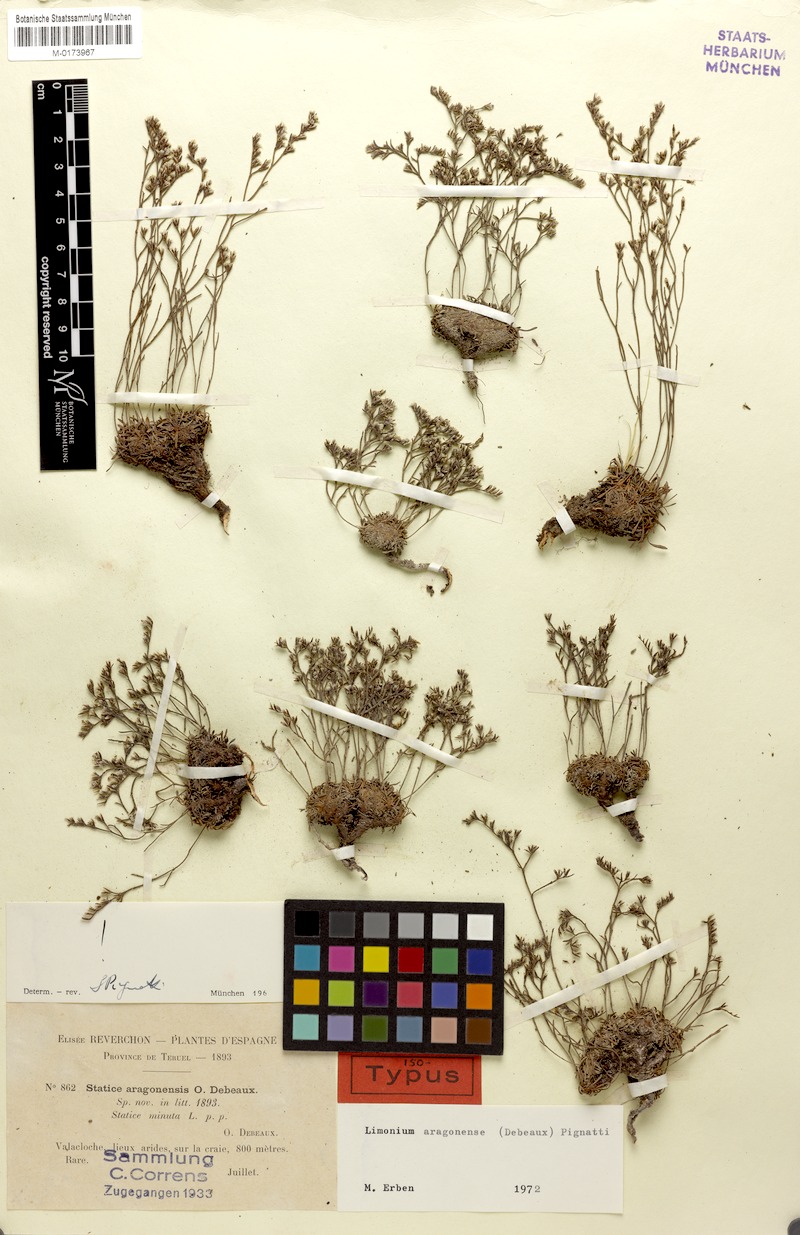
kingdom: Plantae
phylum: Tracheophyta
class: Magnoliopsida
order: Caryophyllales
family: Plumbaginaceae
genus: Limonium
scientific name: Limonium aragonense
